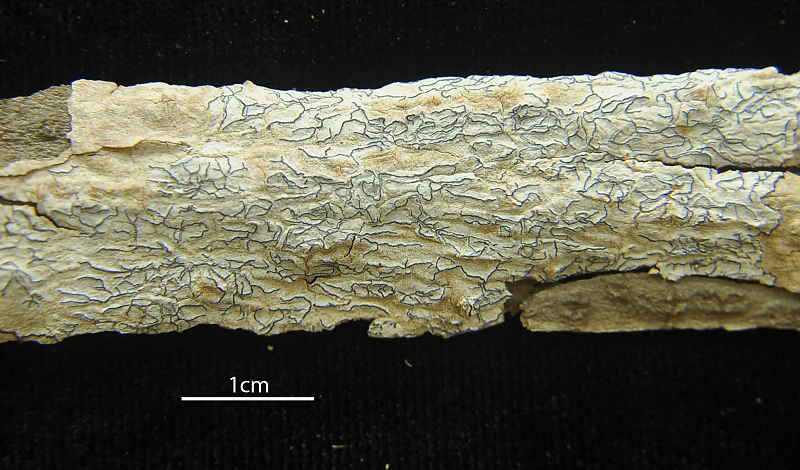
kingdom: Fungi
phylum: Ascomycota
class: Lecanoromycetes
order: Ostropales
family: Graphidaceae
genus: Graphis
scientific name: Graphis supracola
